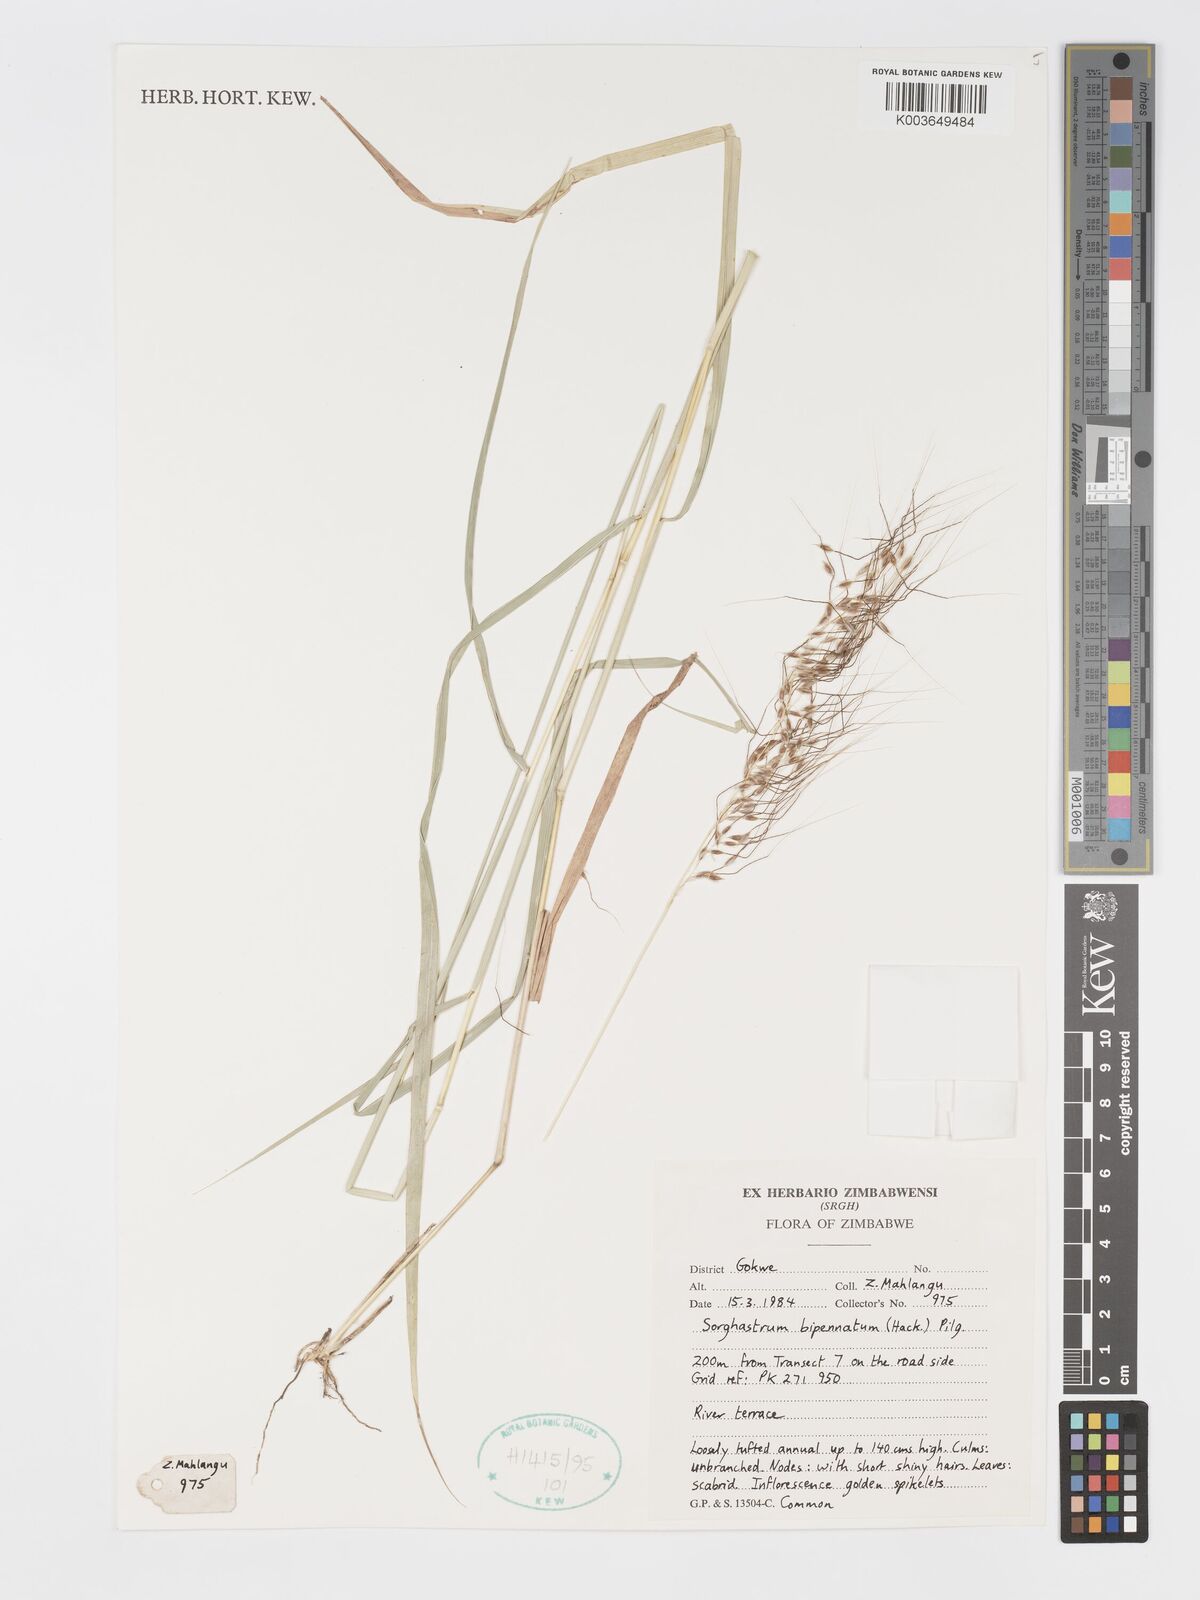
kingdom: Plantae
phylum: Tracheophyta
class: Liliopsida
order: Poales
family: Poaceae
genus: Sorghastrum
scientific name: Sorghastrum incompletum
